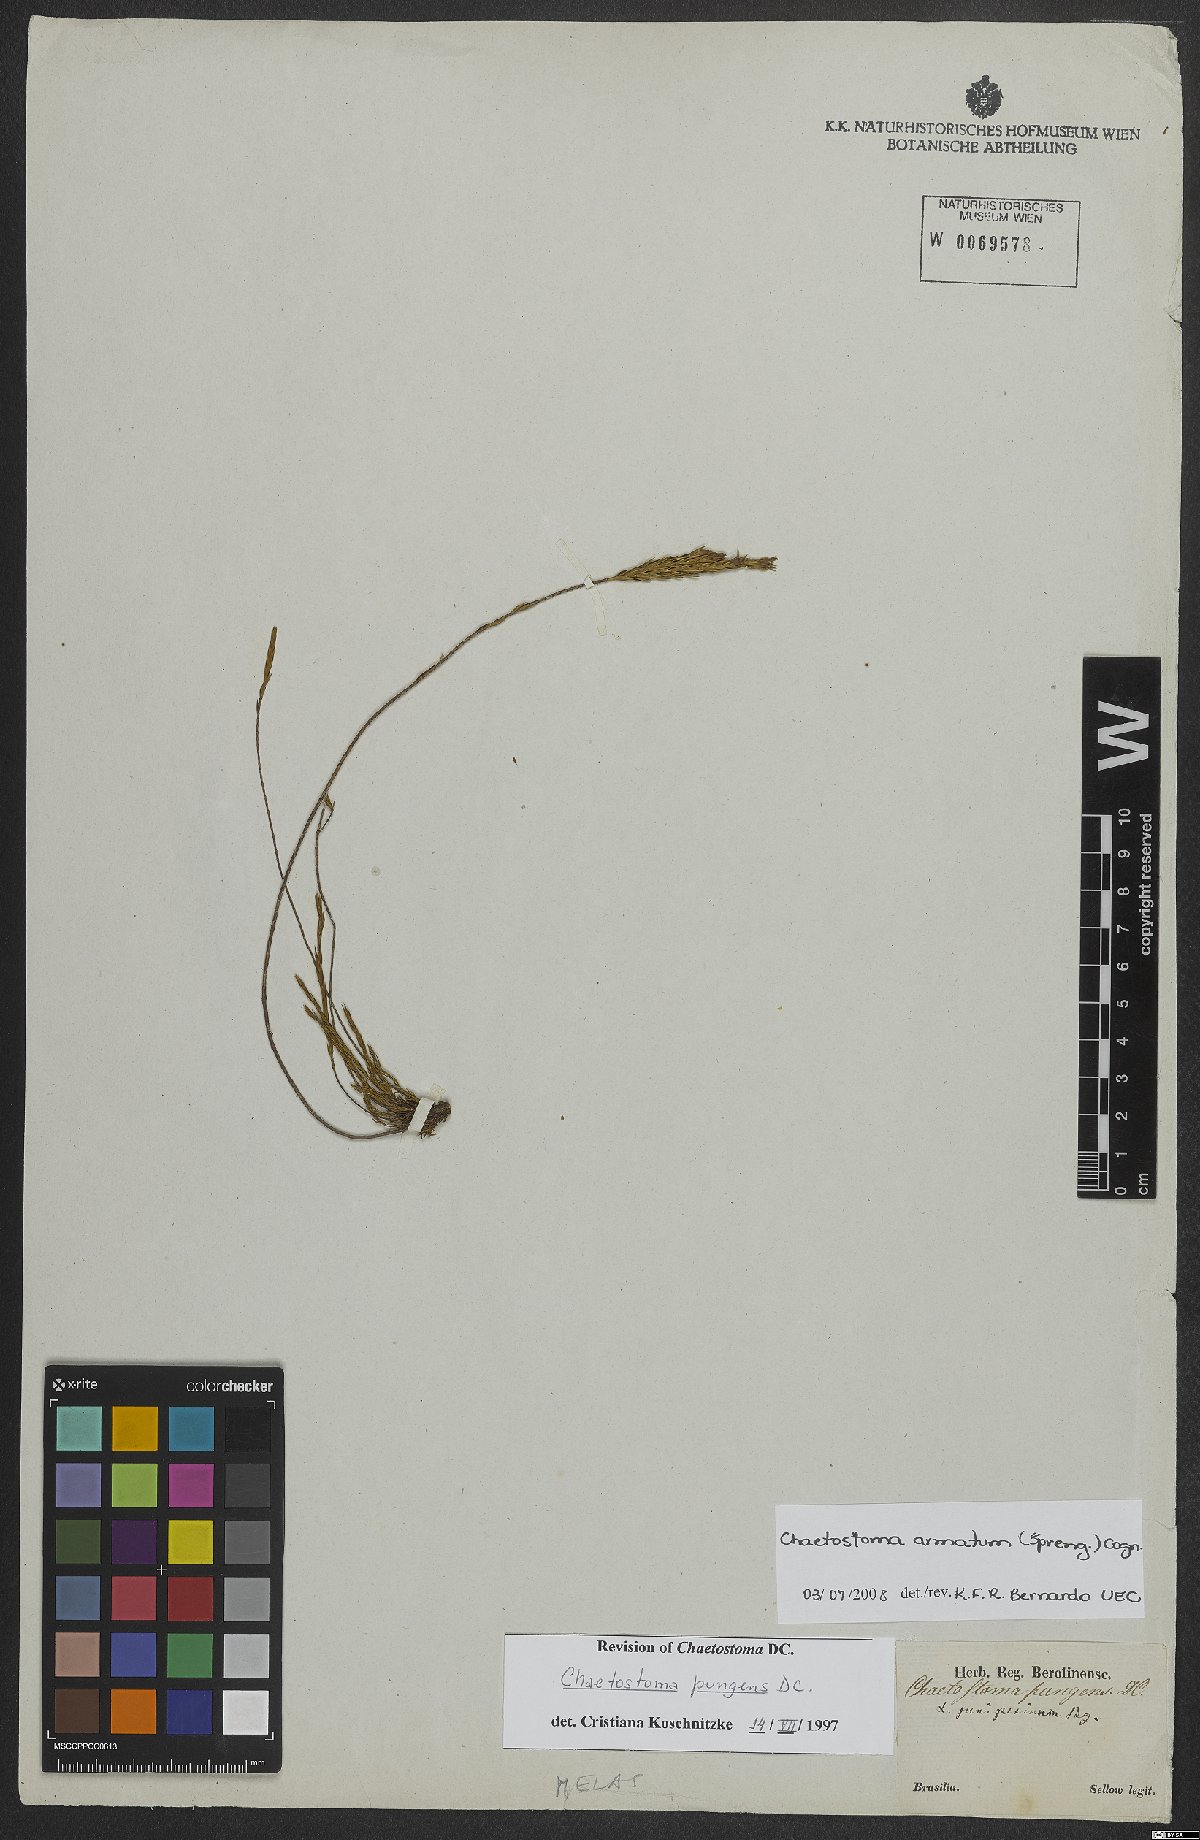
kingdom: Plantae
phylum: Tracheophyta
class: Magnoliopsida
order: Myrtales
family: Melastomataceae
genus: Microlicia
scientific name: Microlicia armata
